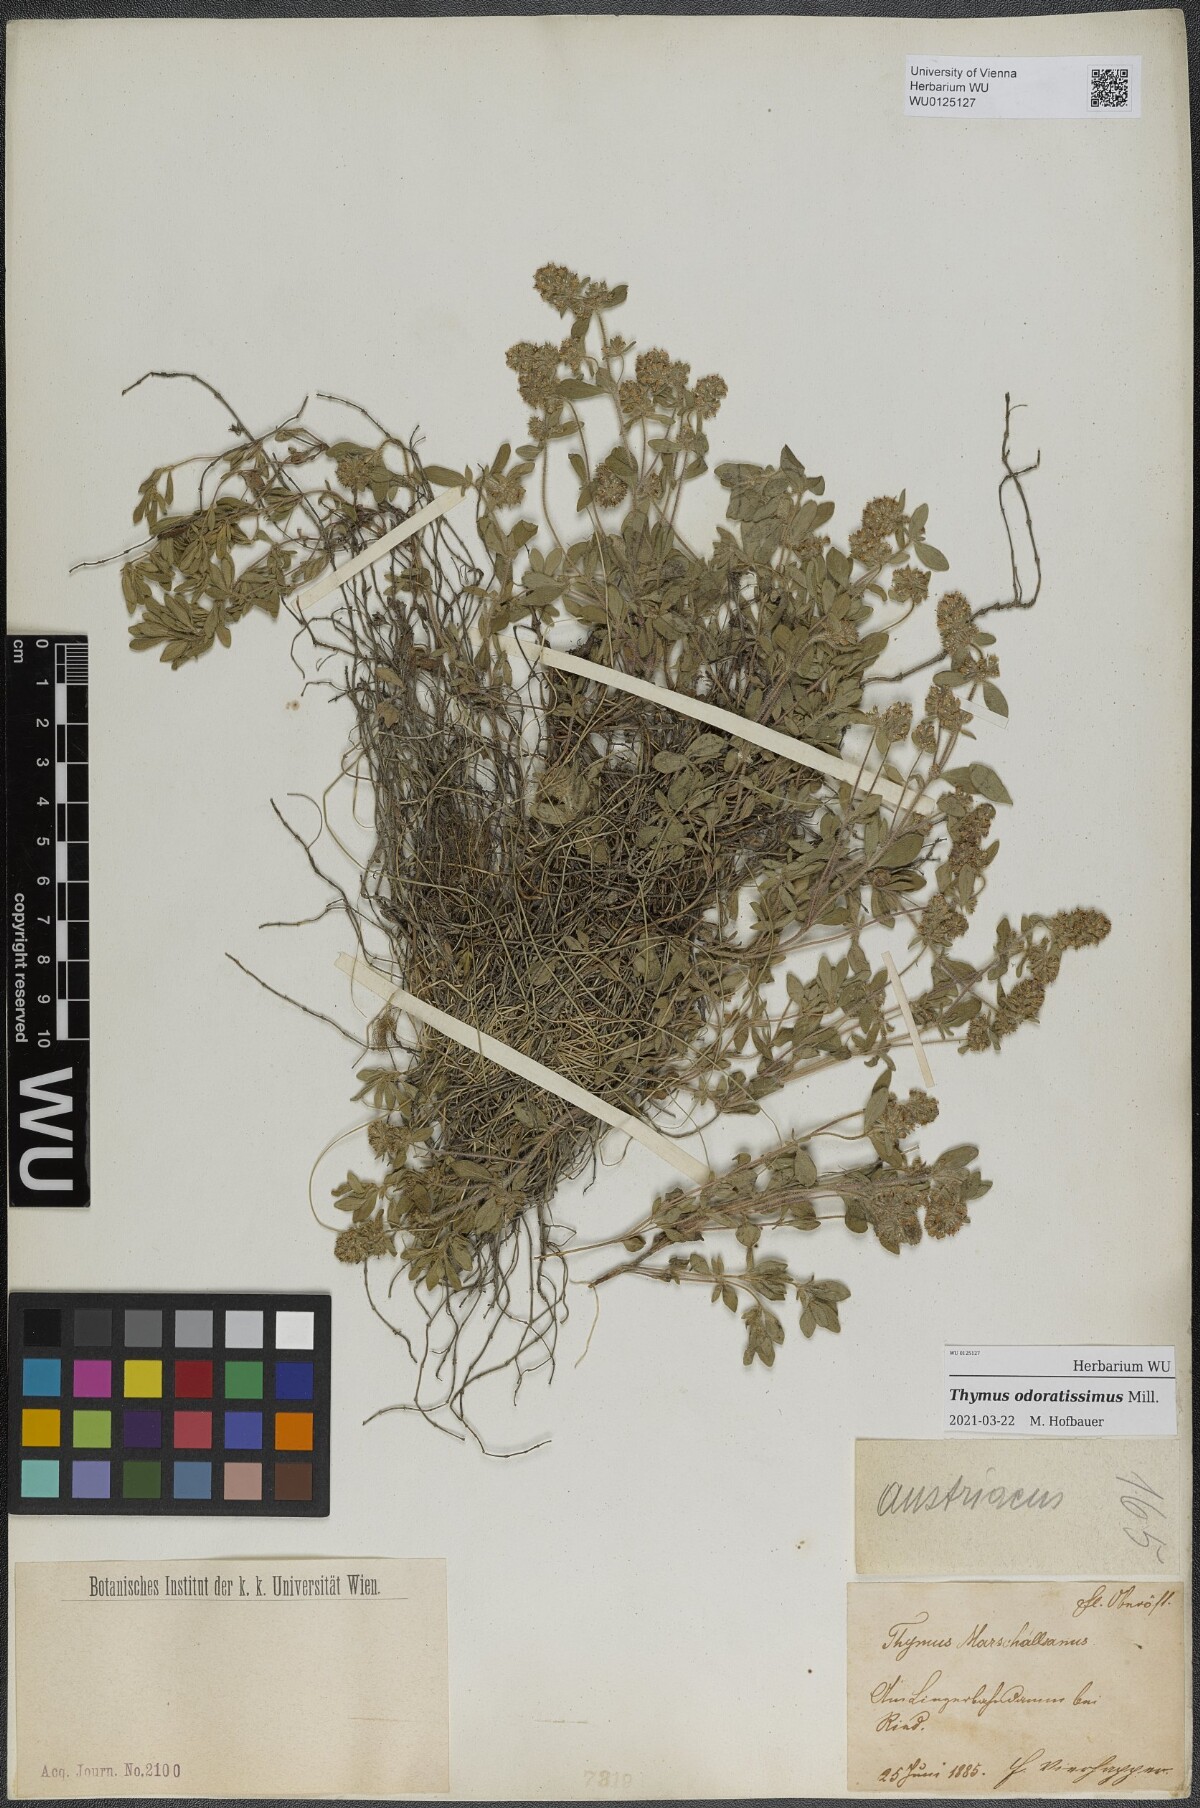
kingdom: Plantae
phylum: Tracheophyta
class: Magnoliopsida
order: Lamiales
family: Lamiaceae
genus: Thymus
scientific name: Thymus odoratissimus
